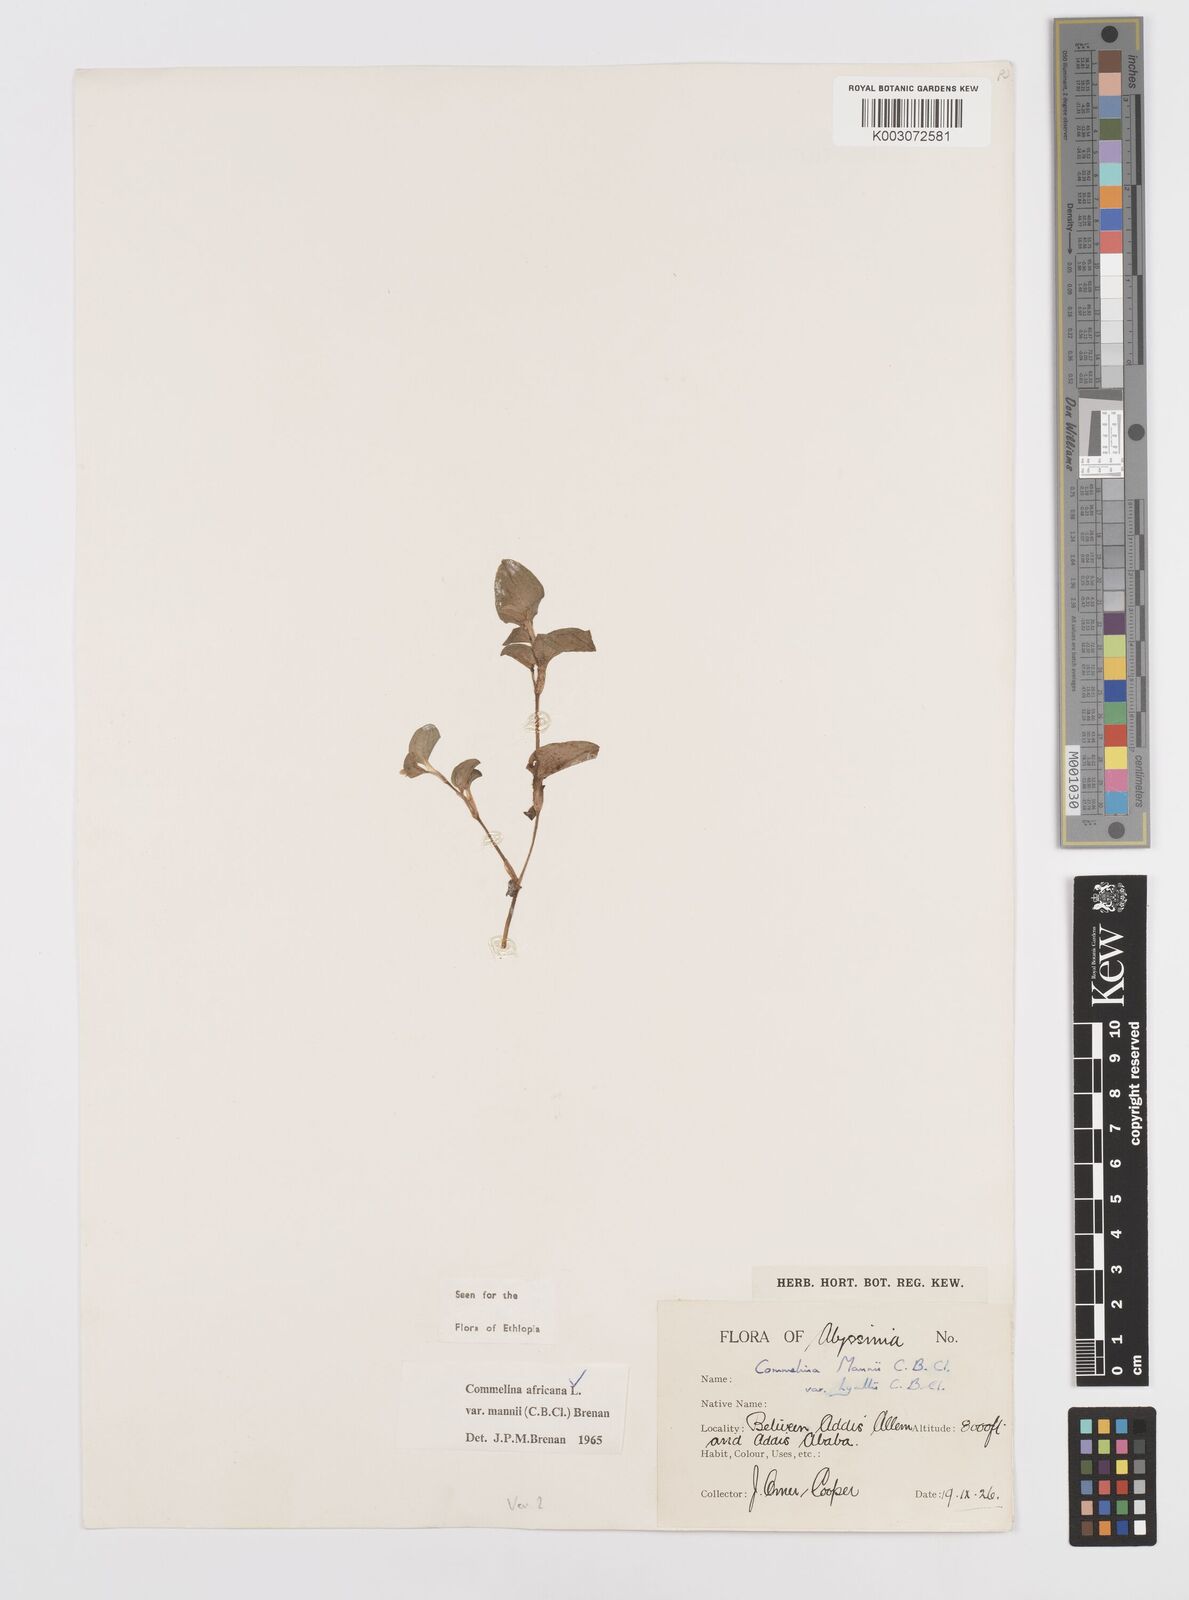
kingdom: Plantae
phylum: Tracheophyta
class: Liliopsida
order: Commelinales
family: Commelinaceae
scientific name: Commelinaceae
